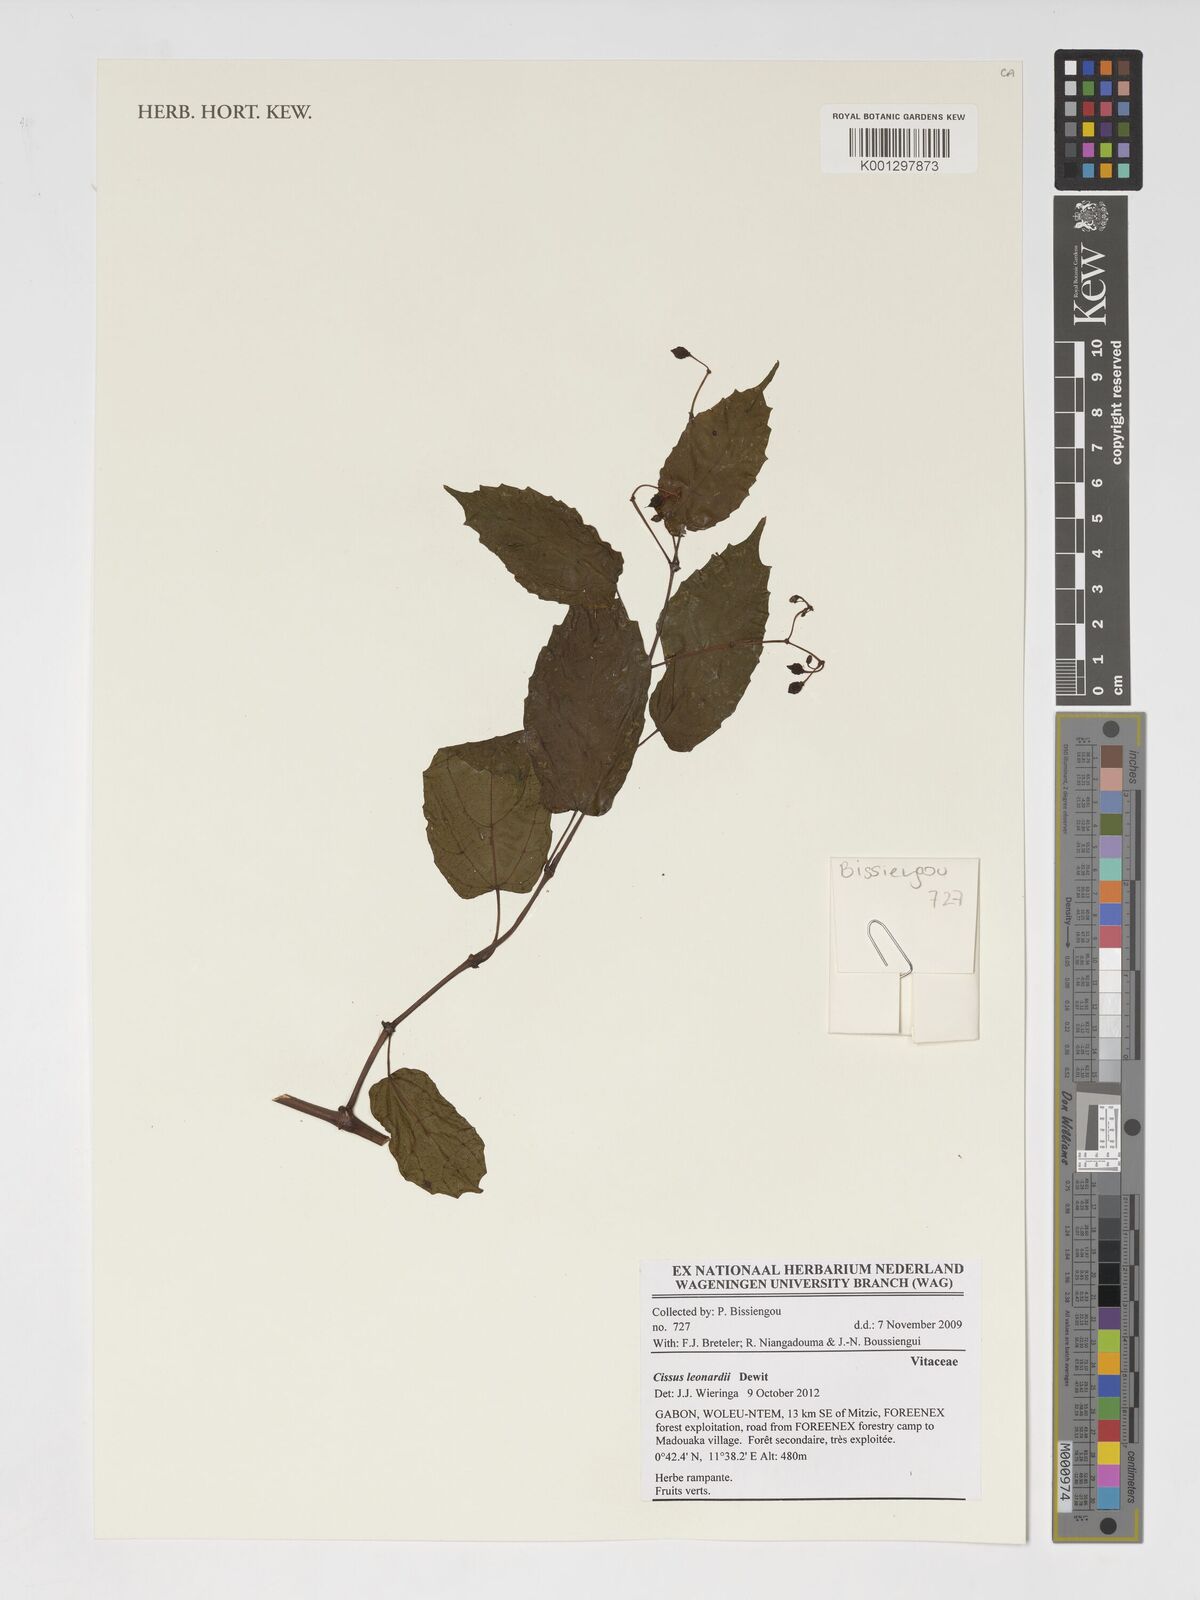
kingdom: Plantae
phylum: Tracheophyta
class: Magnoliopsida
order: Vitales
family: Vitaceae
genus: Cissus
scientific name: Cissus leonardii
